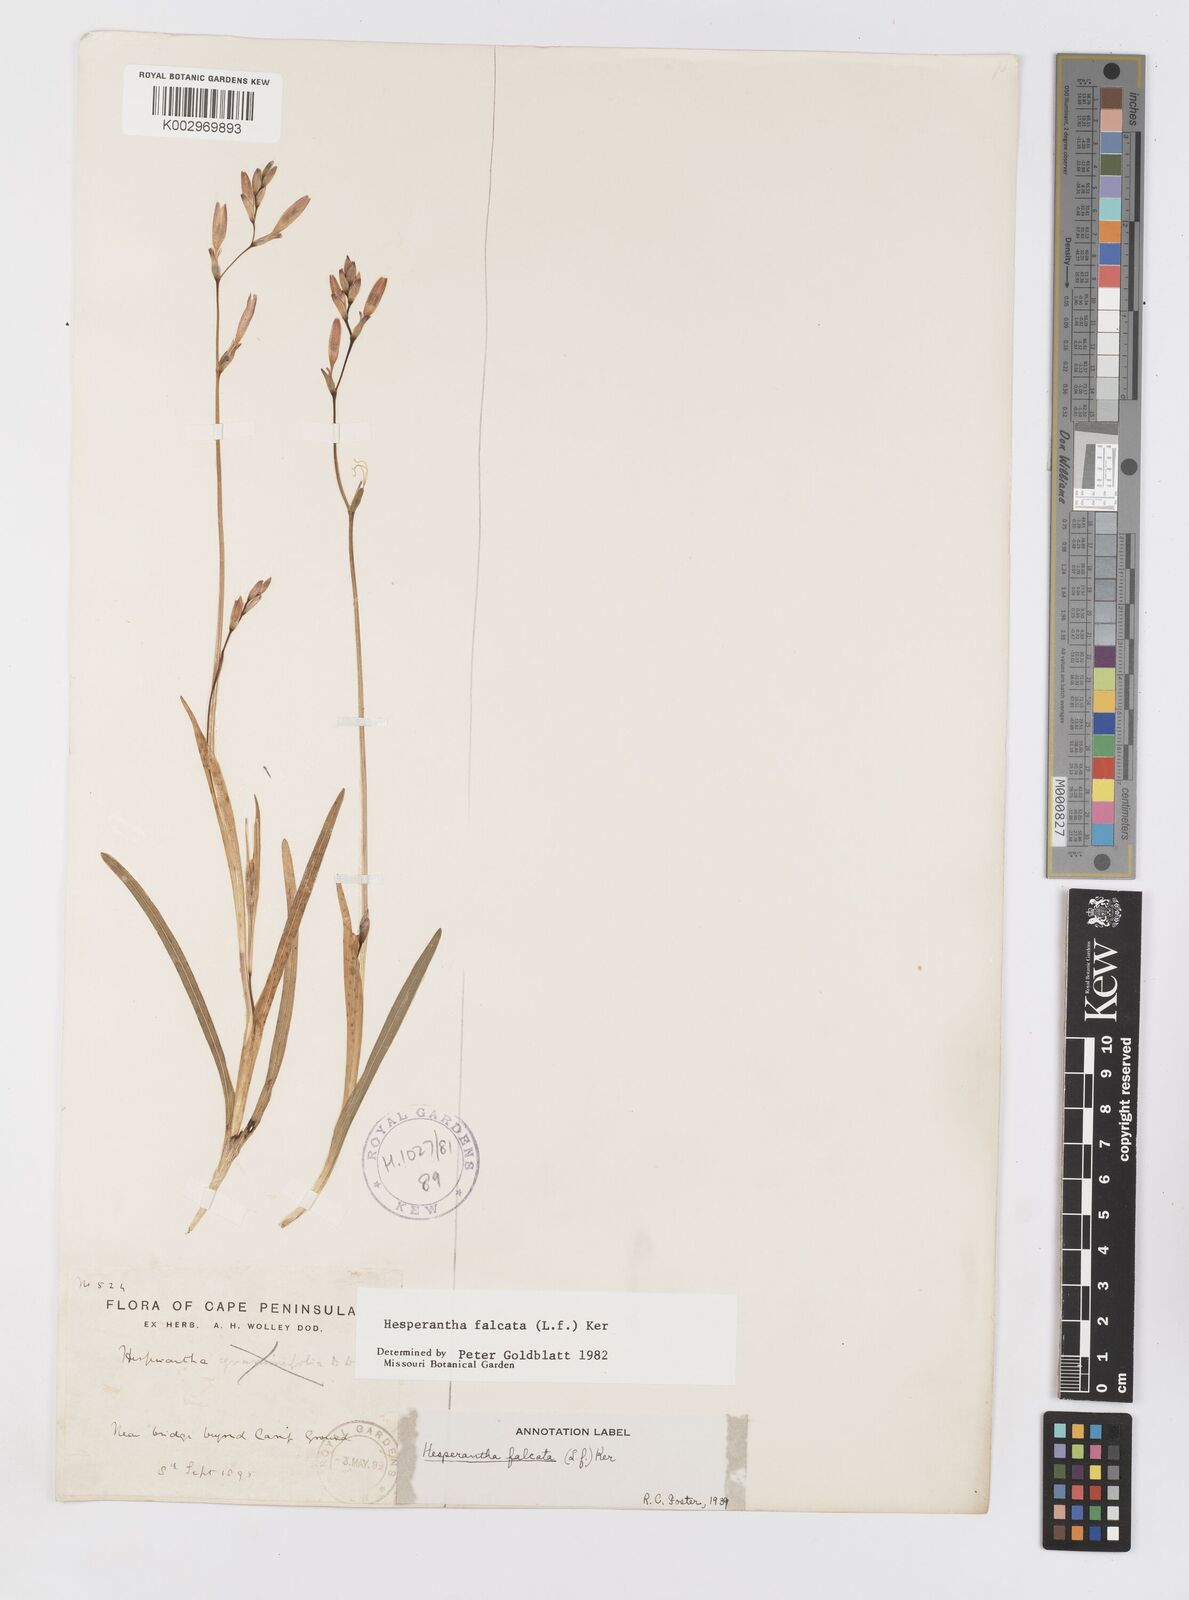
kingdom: Plantae
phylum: Tracheophyta
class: Liliopsida
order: Asparagales
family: Iridaceae
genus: Hesperantha
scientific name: Hesperantha falcata
